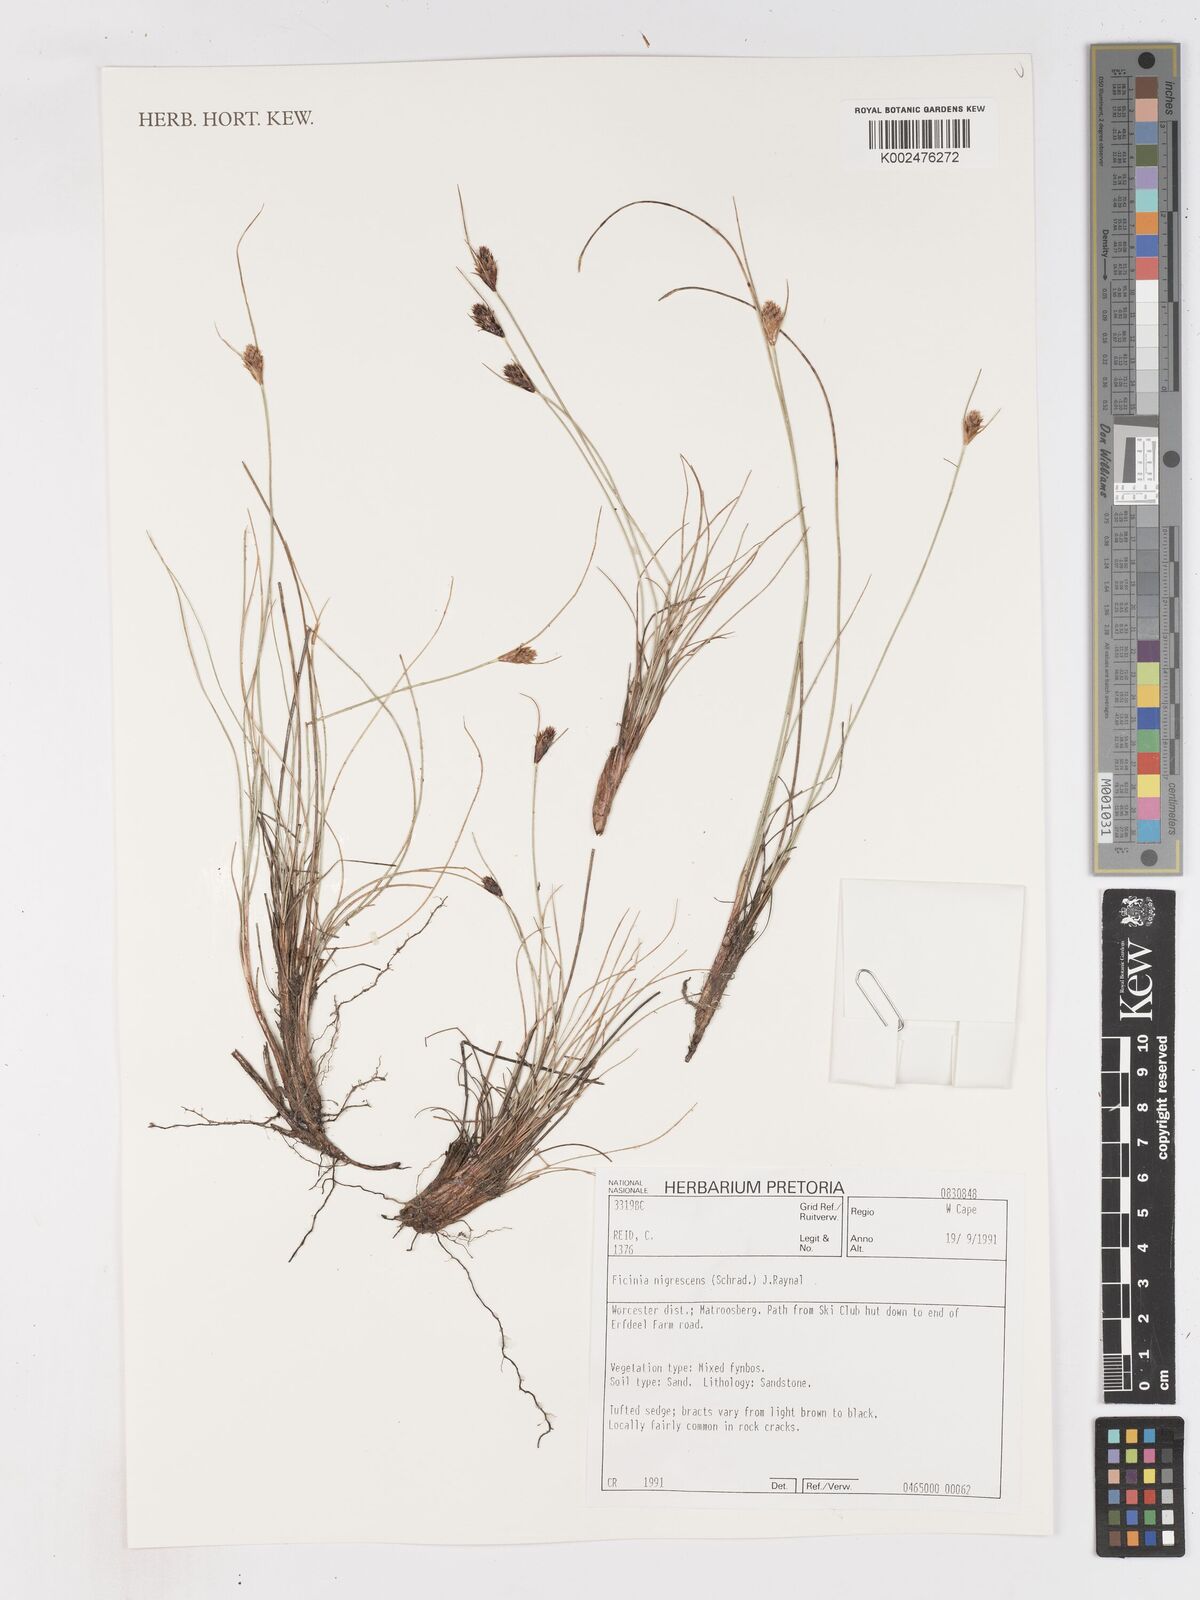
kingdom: Plantae
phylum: Tracheophyta
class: Liliopsida
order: Poales
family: Cyperaceae
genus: Ficinia
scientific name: Ficinia nigrescens
